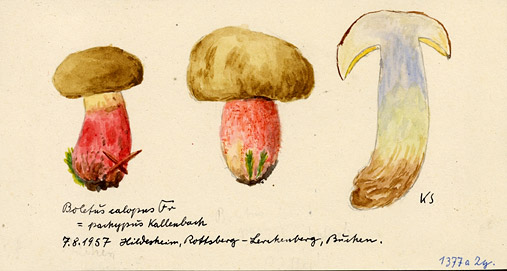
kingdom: Fungi
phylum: Basidiomycota
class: Agaricomycetes
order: Boletales
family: Boletaceae
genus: Caloboletus
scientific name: Caloboletus calopus
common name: Bitter beech bolete
